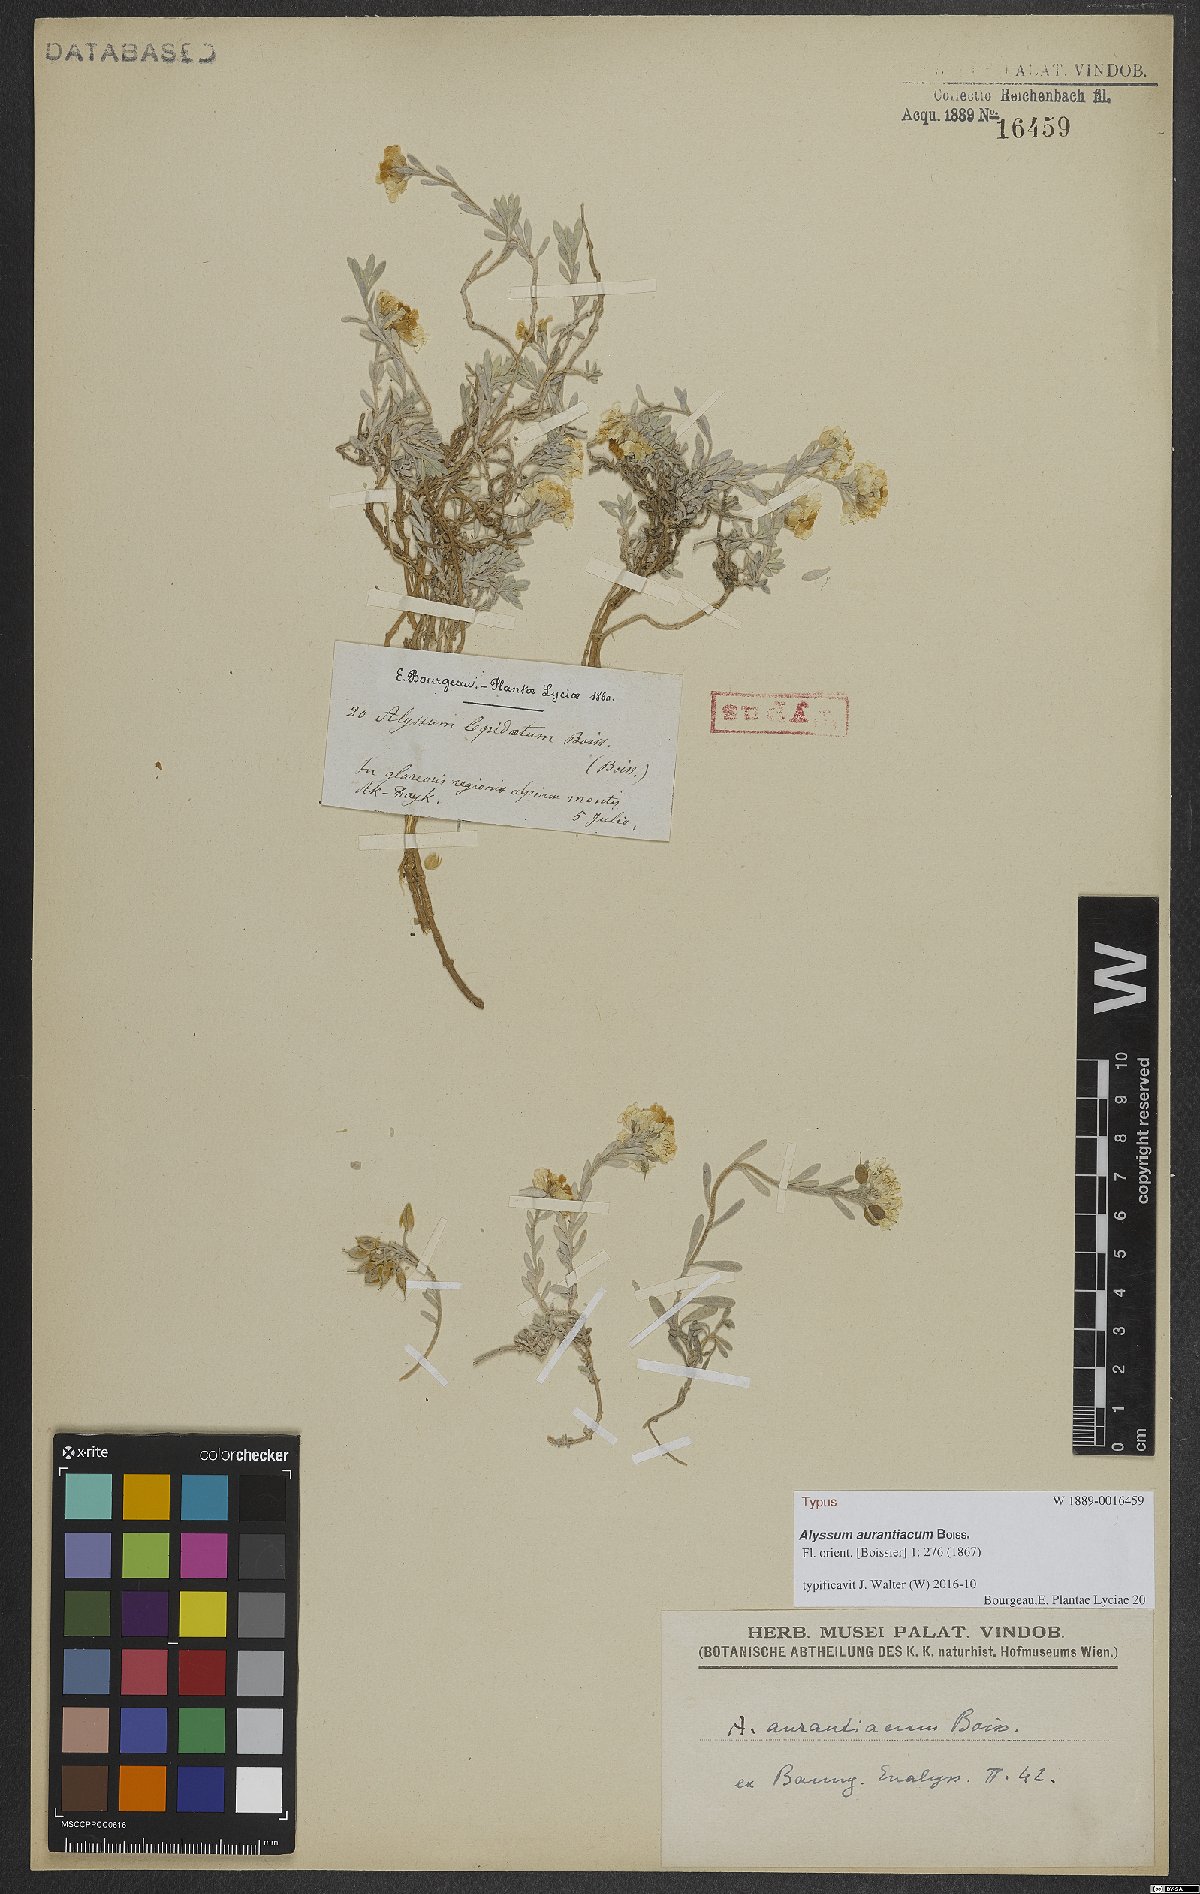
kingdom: Plantae
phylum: Tracheophyta
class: Magnoliopsida
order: Brassicales
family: Brassicaceae
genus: Alyssum
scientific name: Alyssum aurantiacum
